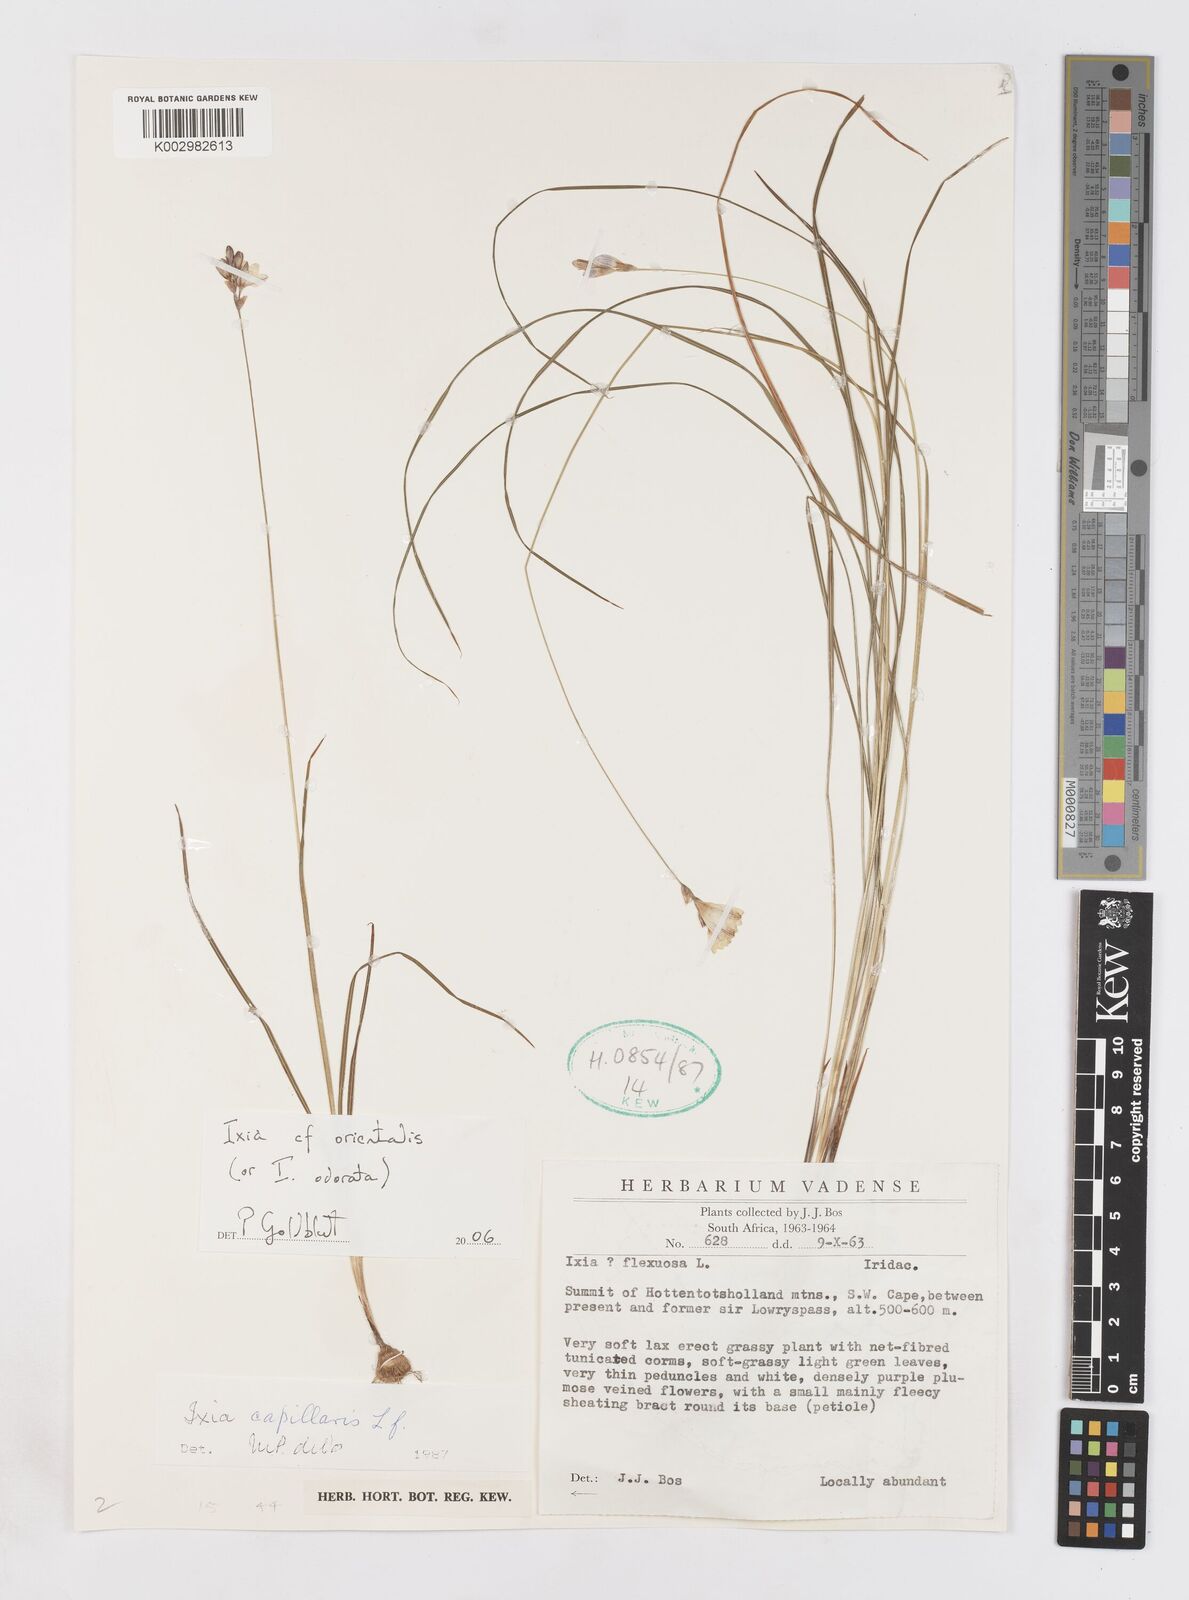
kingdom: Plantae
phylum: Tracheophyta
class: Liliopsida
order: Asparagales
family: Iridaceae
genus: Ixia
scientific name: Ixia orientalis
